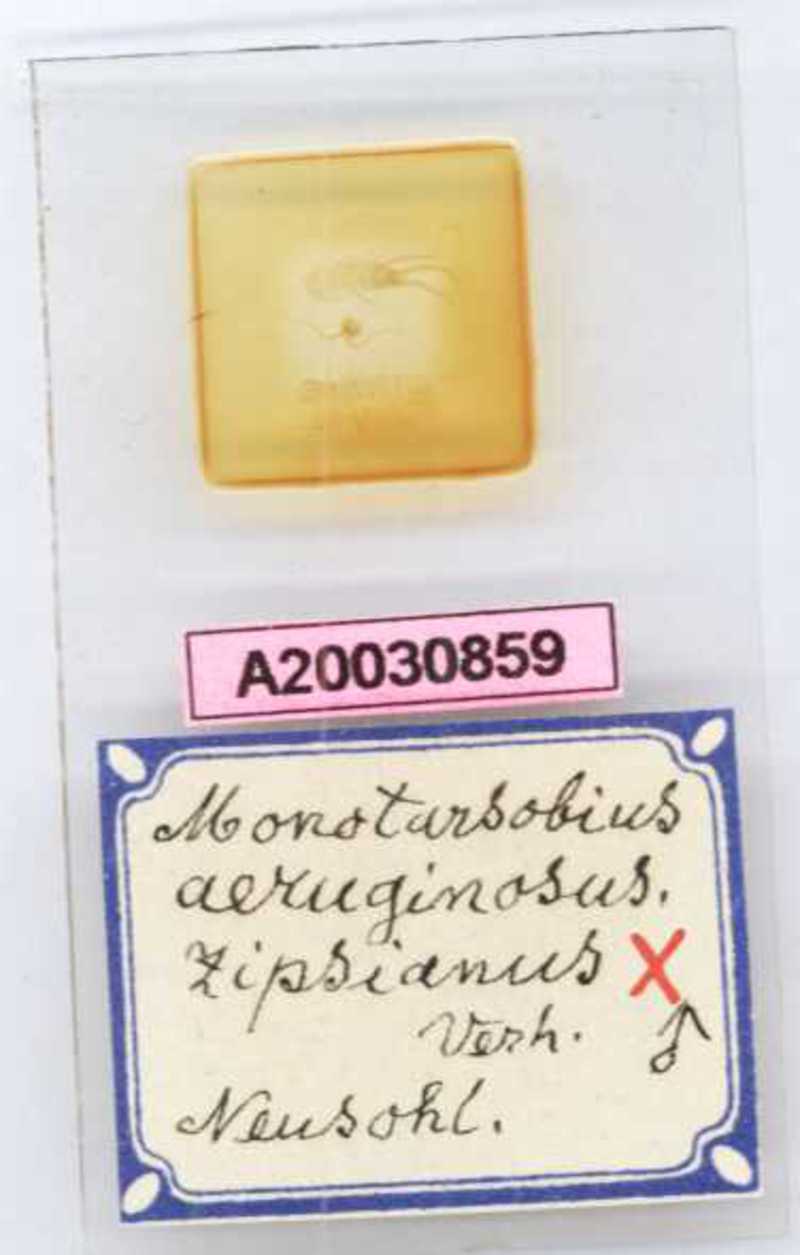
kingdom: Animalia
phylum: Arthropoda
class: Chilopoda
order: Lithobiomorpha
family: Lithobiidae
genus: Monotarsobius
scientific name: Monotarsobius
